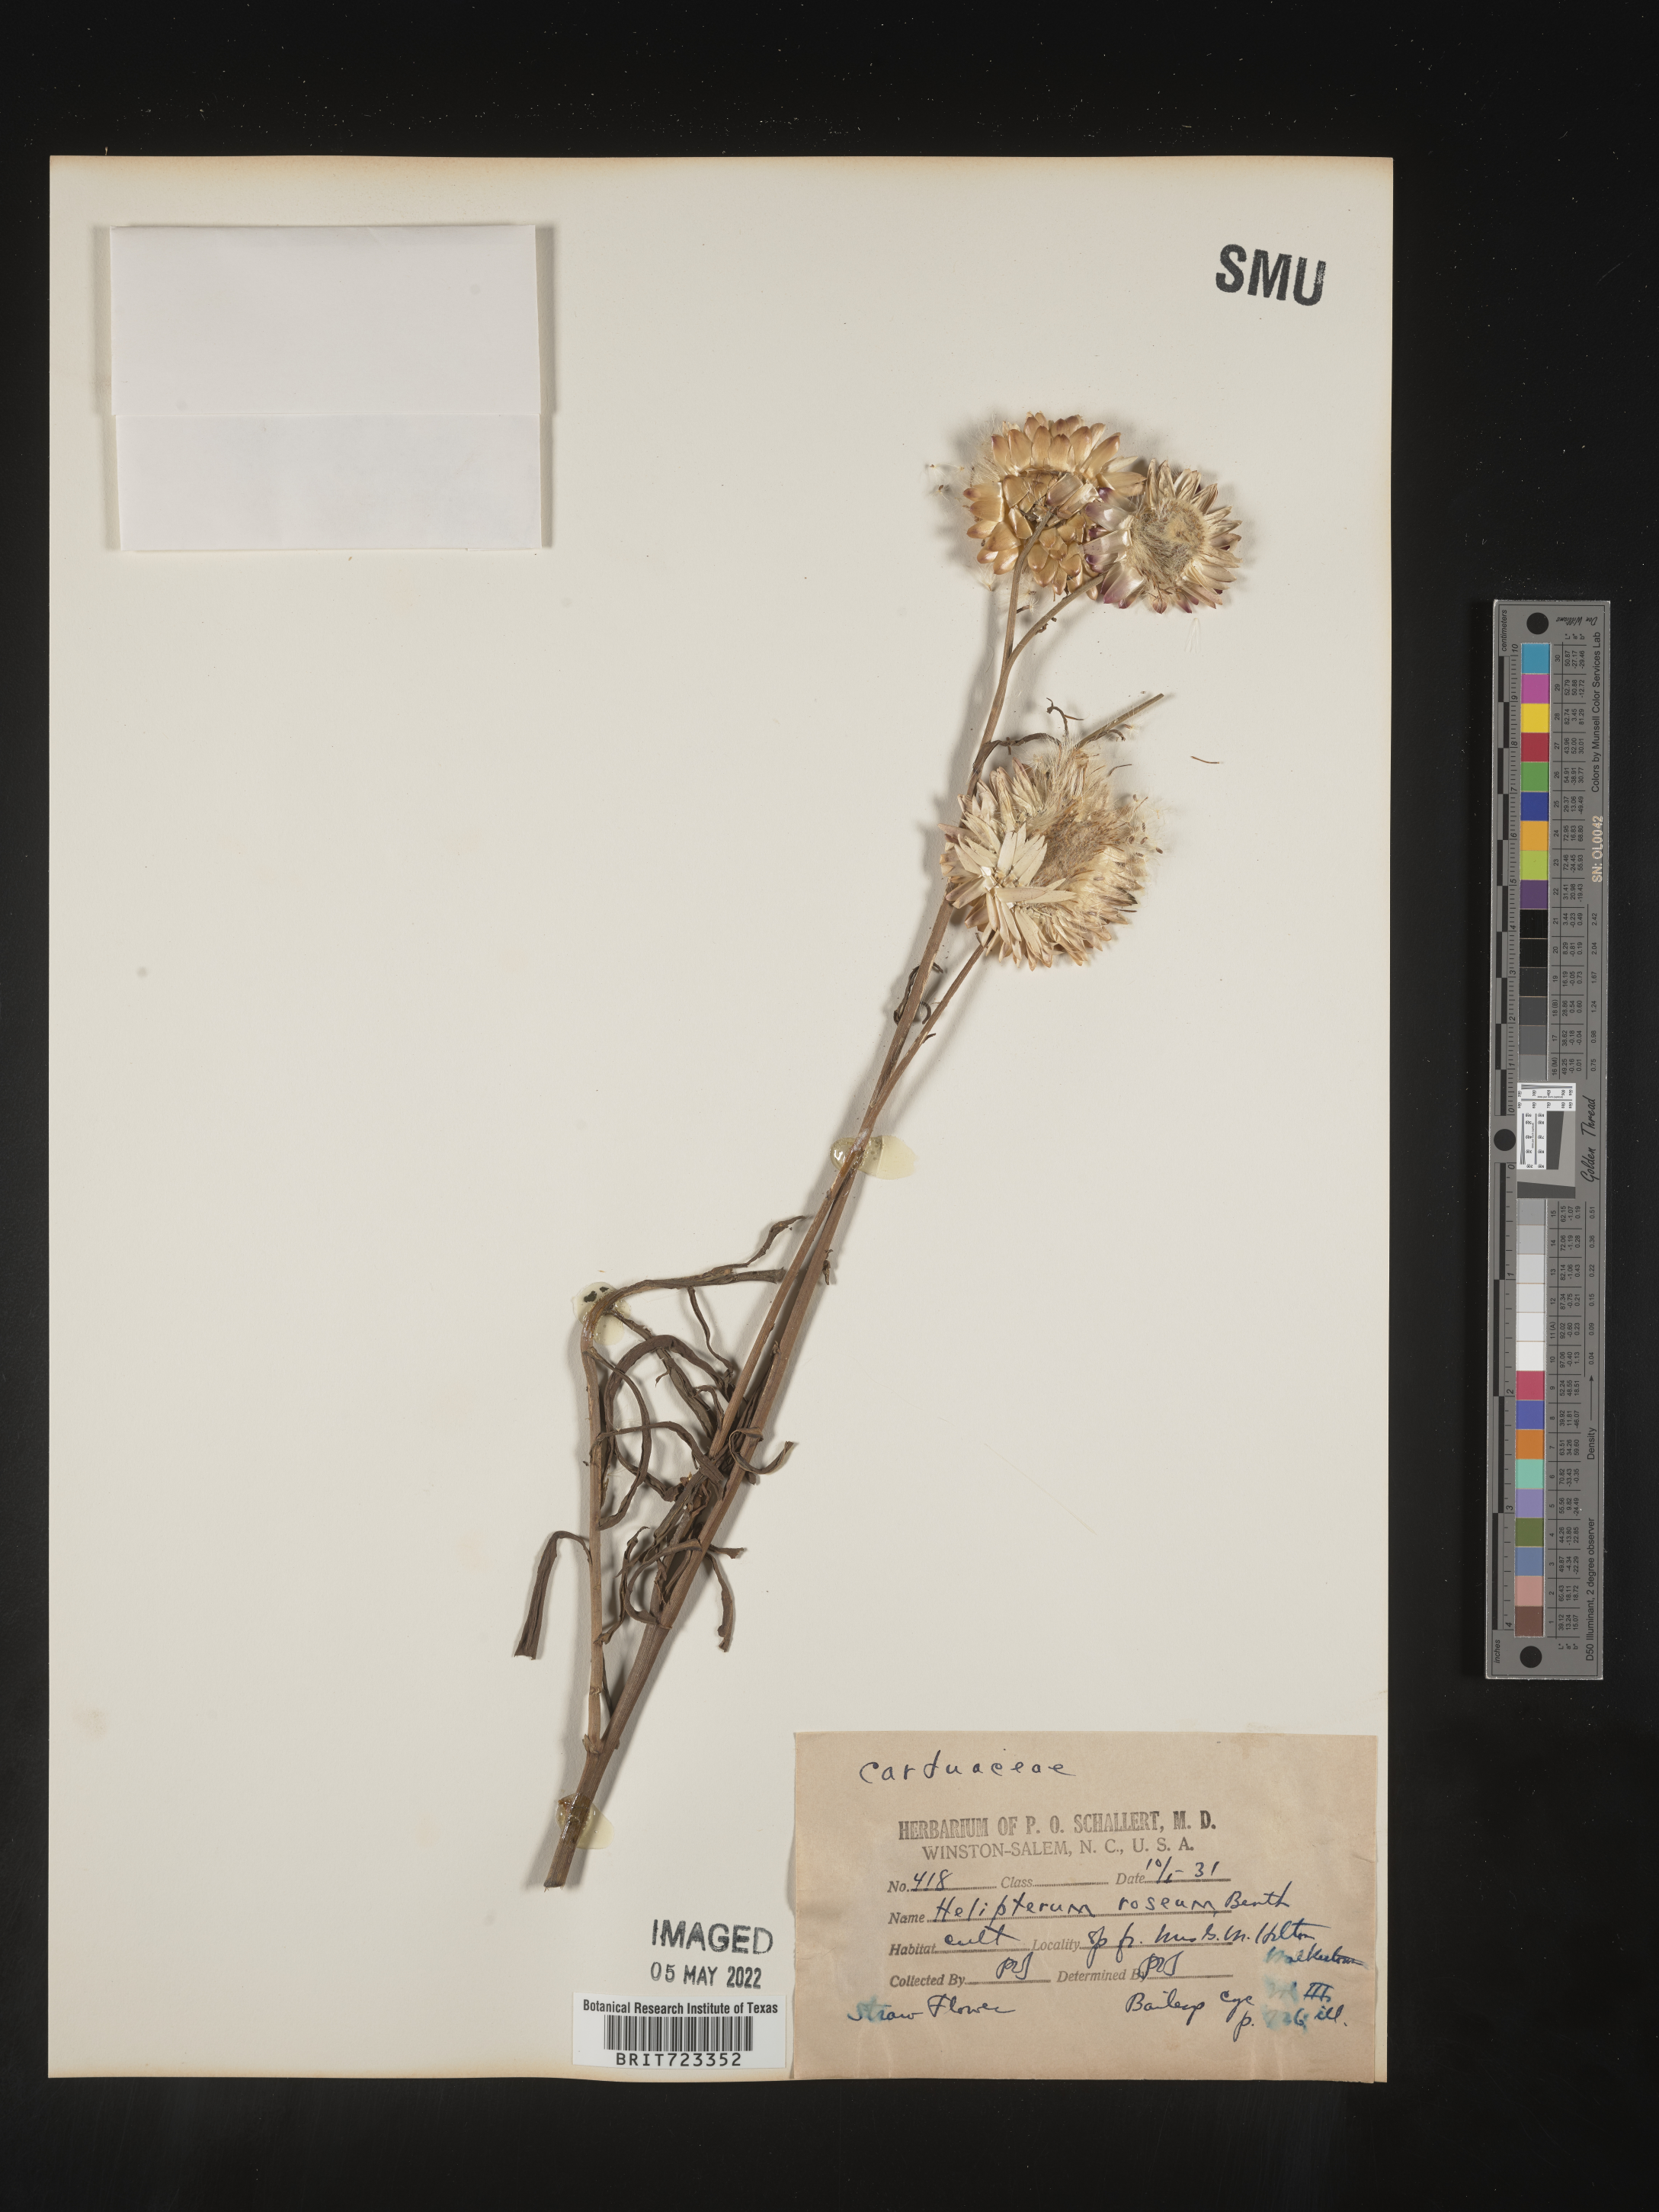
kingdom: Plantae
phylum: Tracheophyta
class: Magnoliopsida
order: Asterales
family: Asteraceae
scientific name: Asteraceae
